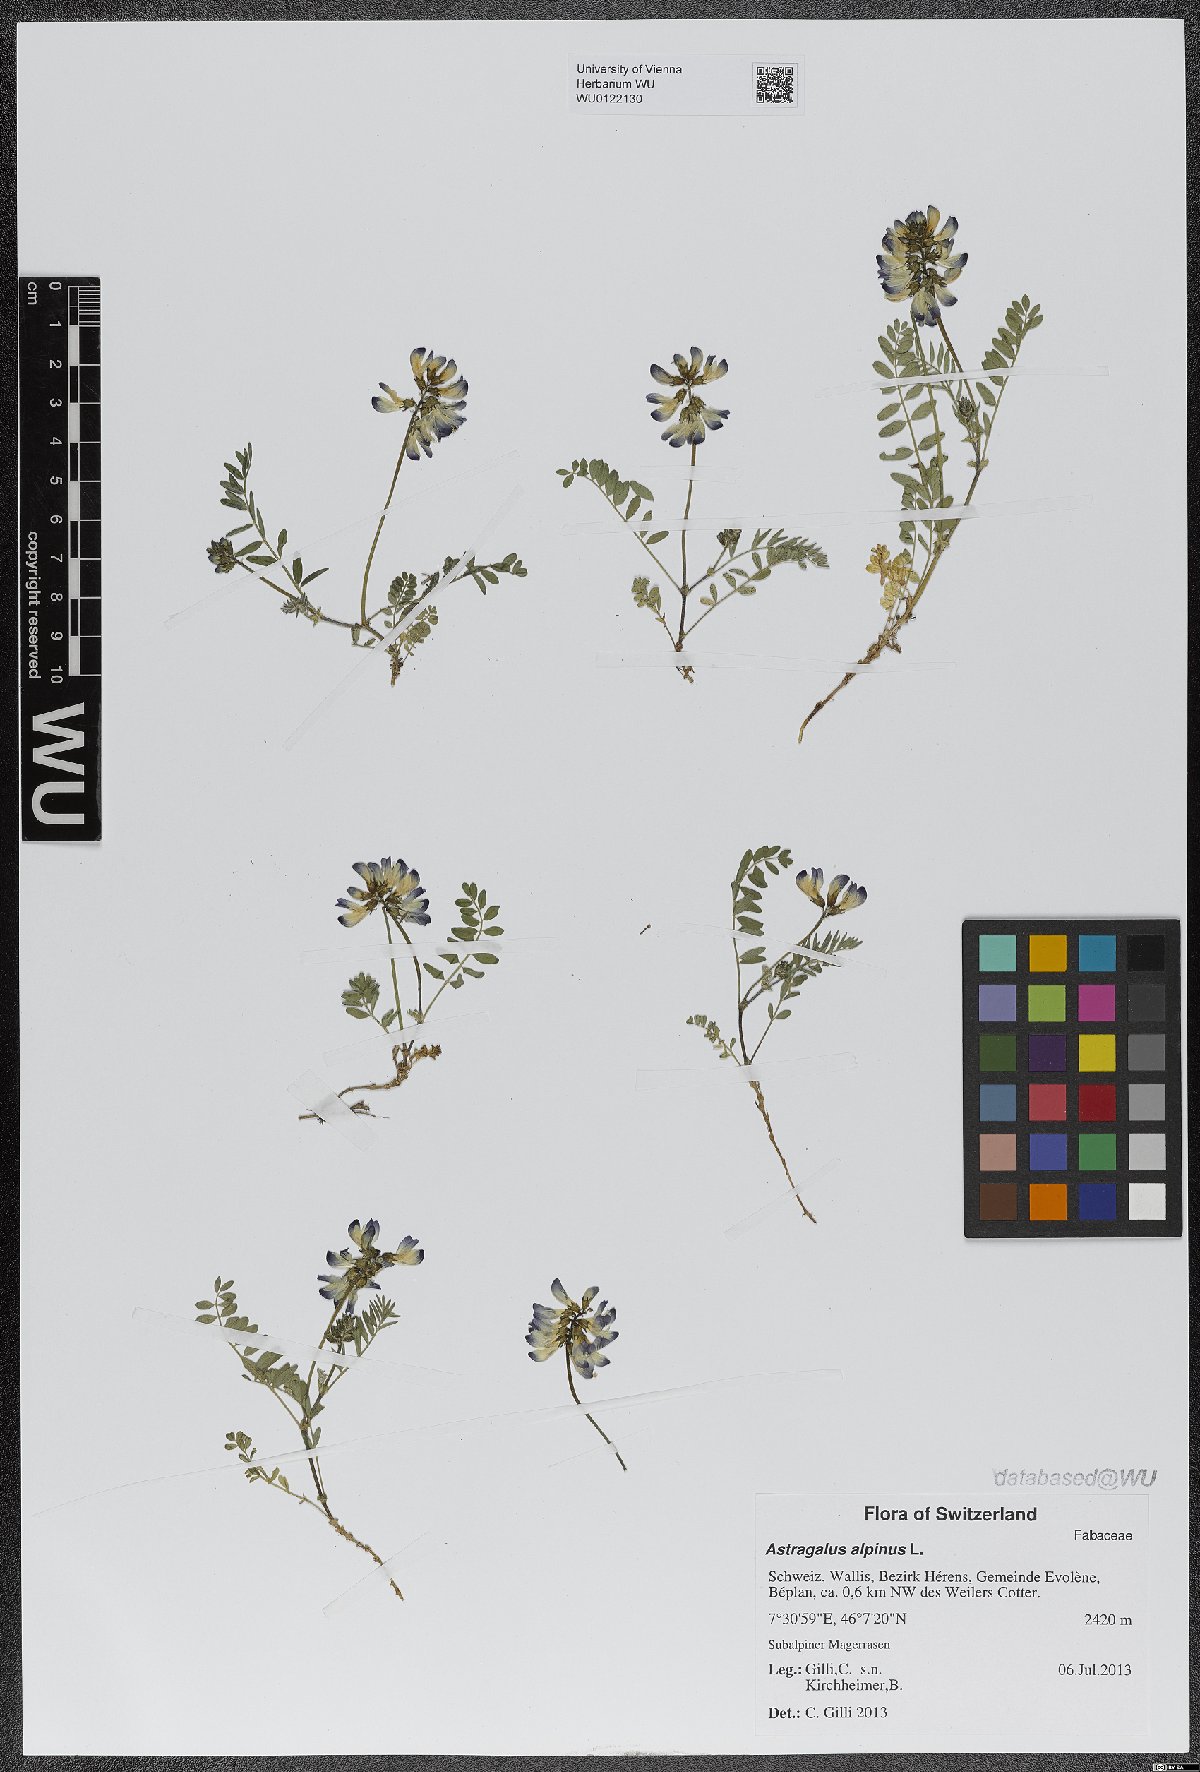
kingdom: Plantae
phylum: Tracheophyta
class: Magnoliopsida
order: Fabales
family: Fabaceae
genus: Astragalus
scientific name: Astragalus alpinus
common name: Alpine milk-vetch
